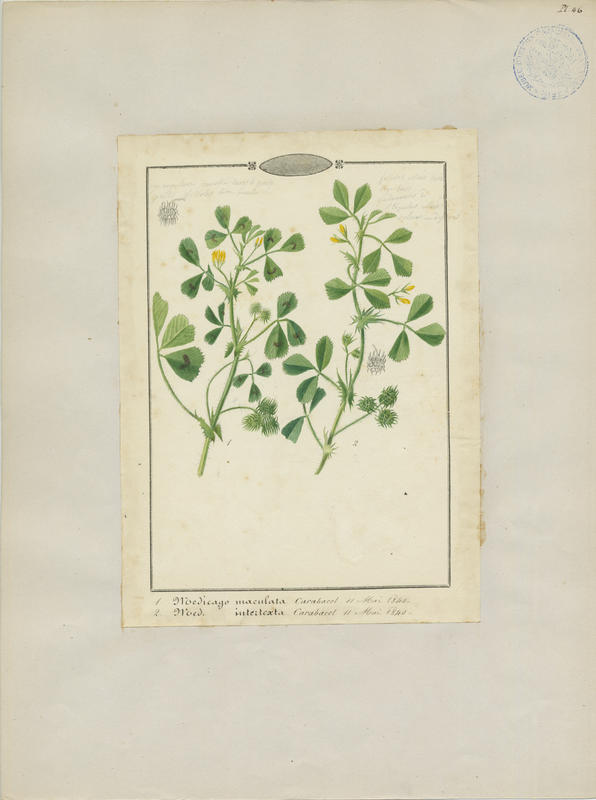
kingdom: Plantae
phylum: Tracheophyta
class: Magnoliopsida
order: Fabales
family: Fabaceae
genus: Medicago
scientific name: Medicago arabica
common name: Spotted medick
